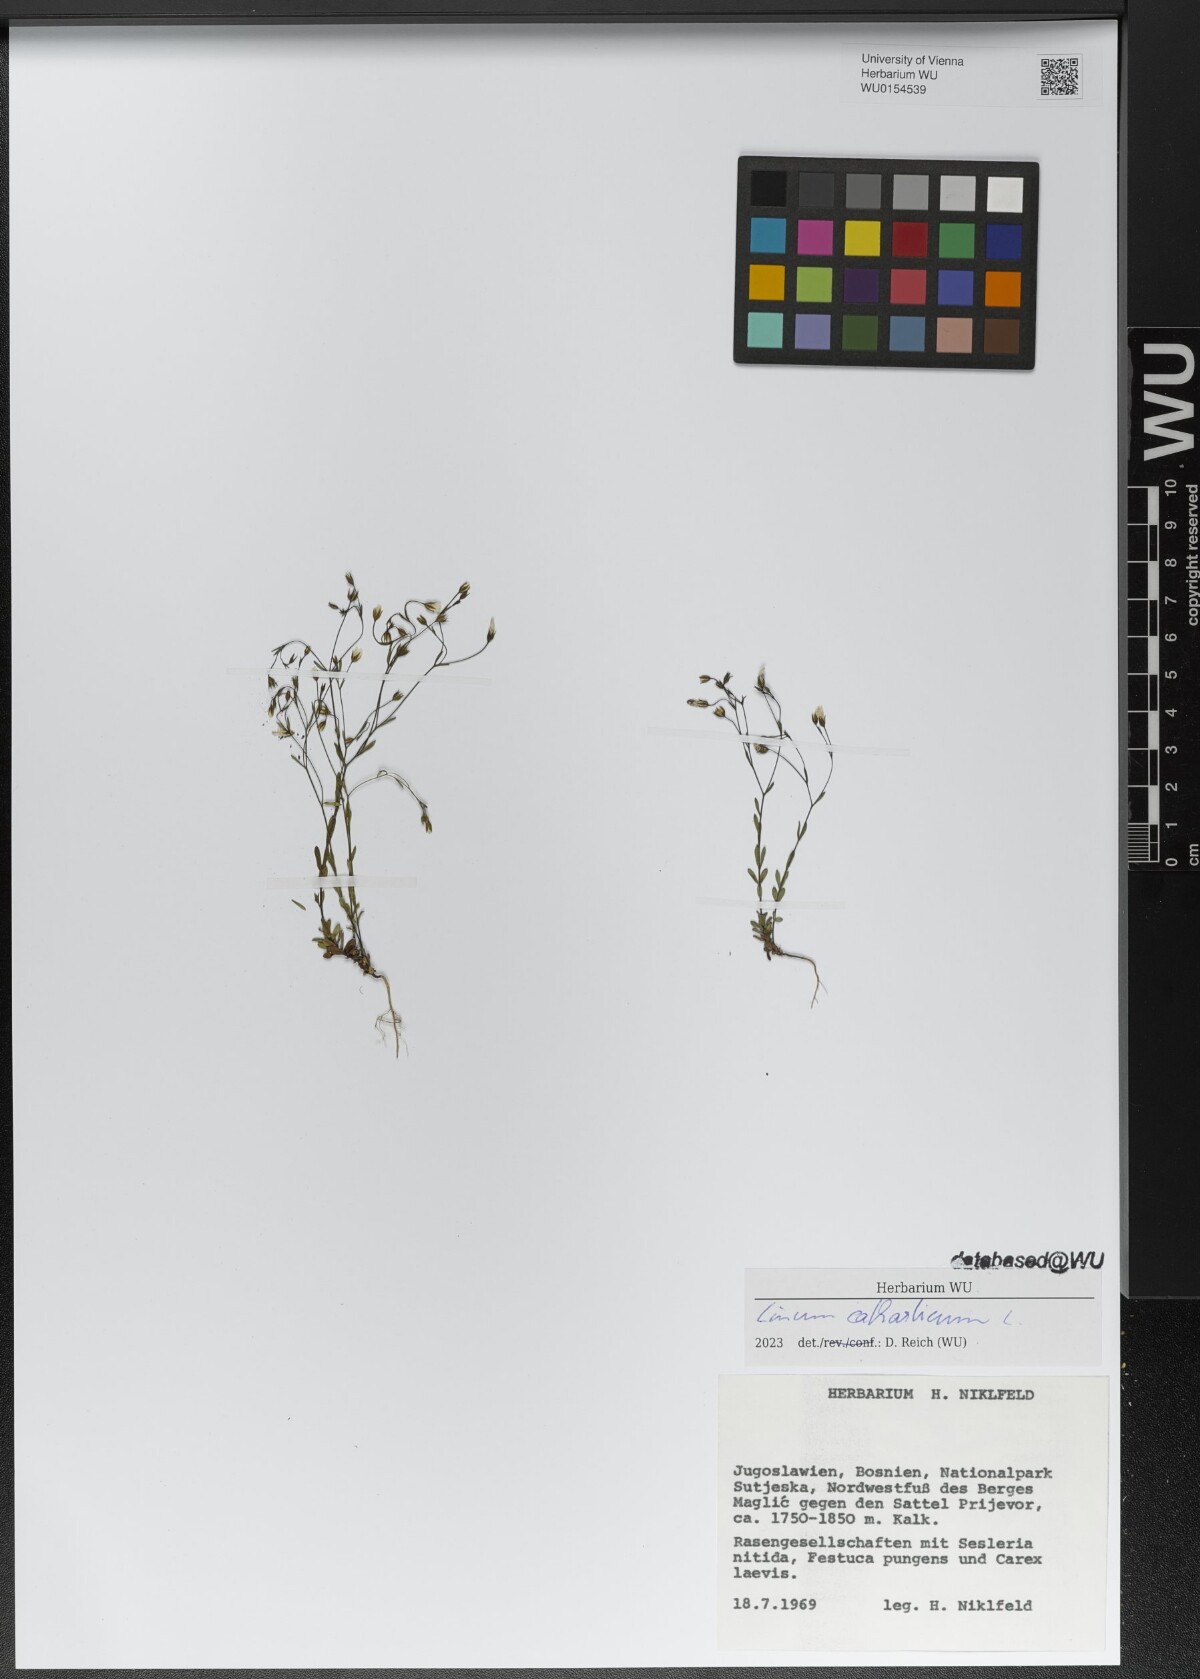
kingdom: Plantae
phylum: Tracheophyta
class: Magnoliopsida
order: Malpighiales
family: Linaceae
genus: Linum
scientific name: Linum catharticum
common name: Fairy flax
